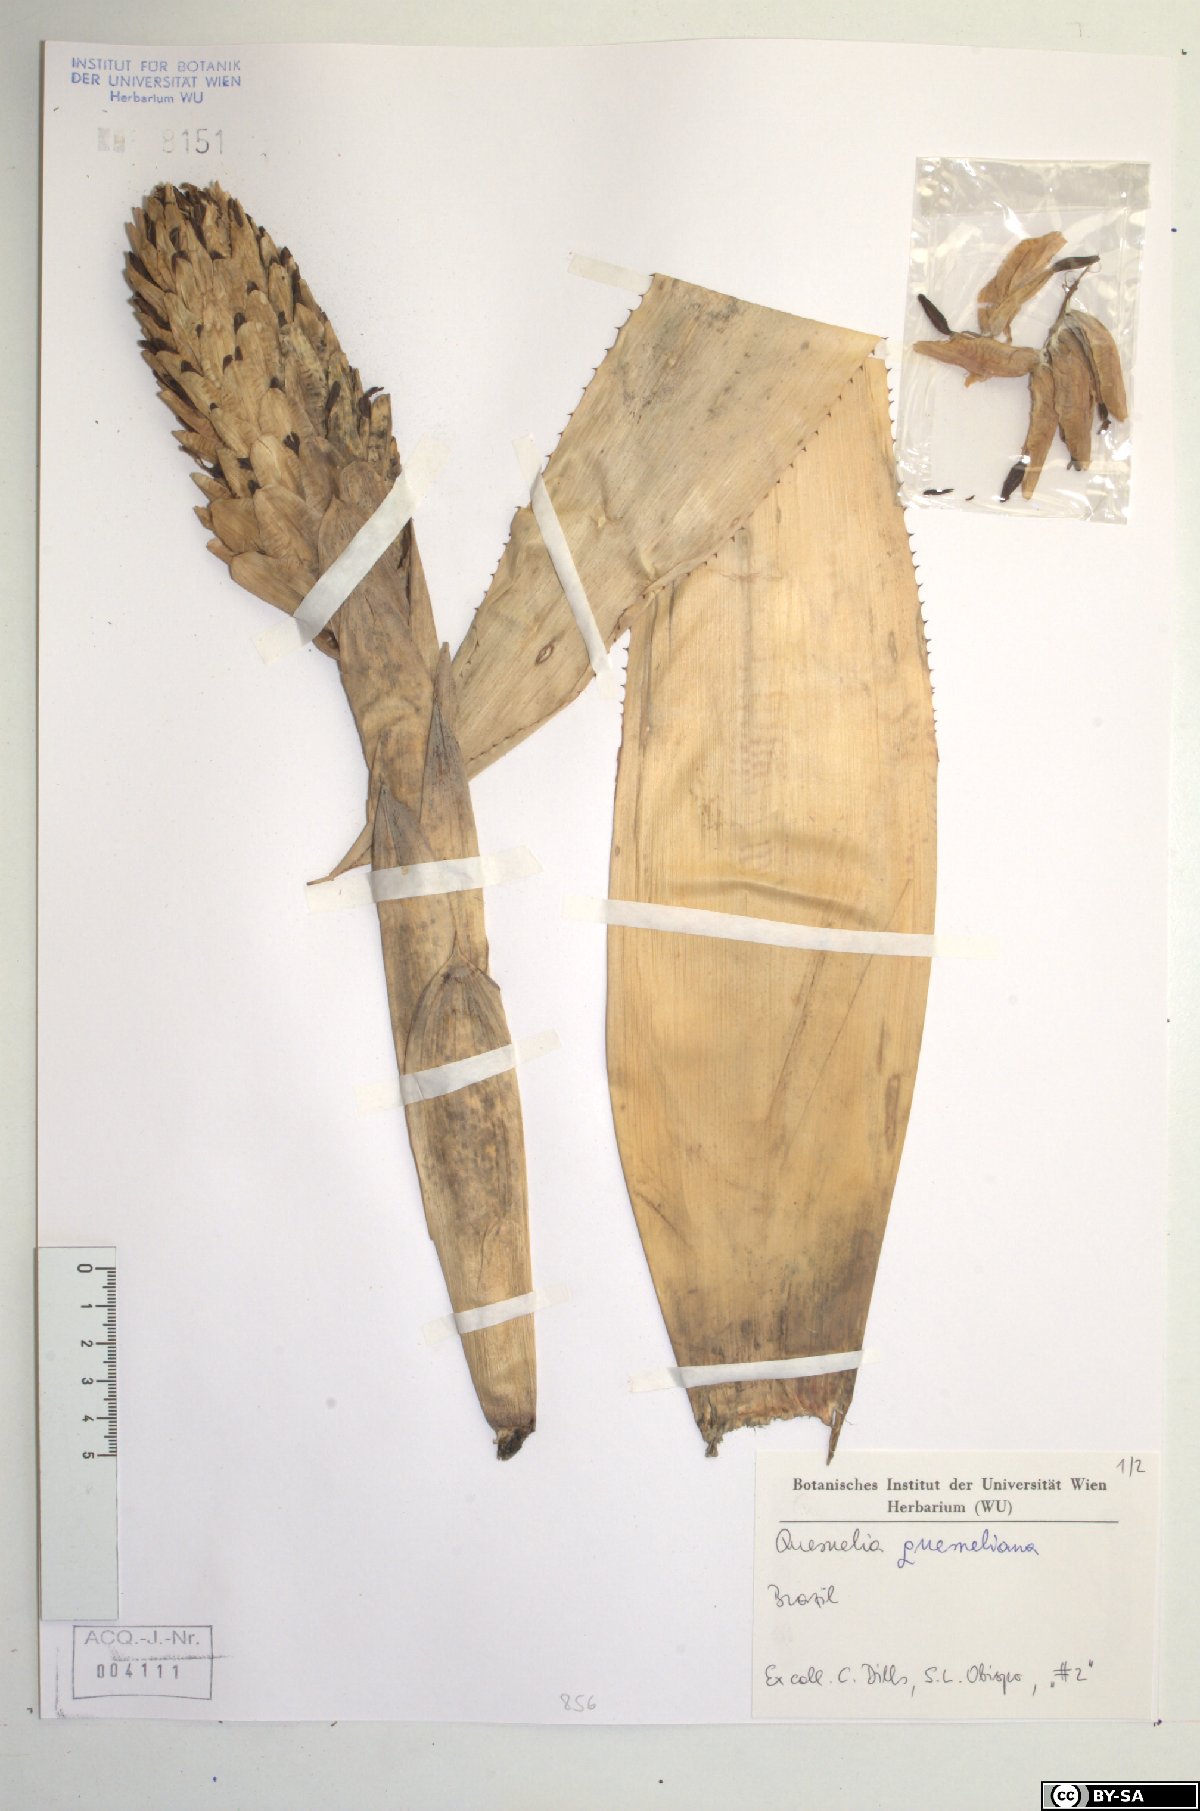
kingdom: Plantae
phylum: Tracheophyta
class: Liliopsida
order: Poales
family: Bromeliaceae
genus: Quesnelia
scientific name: Quesnelia
